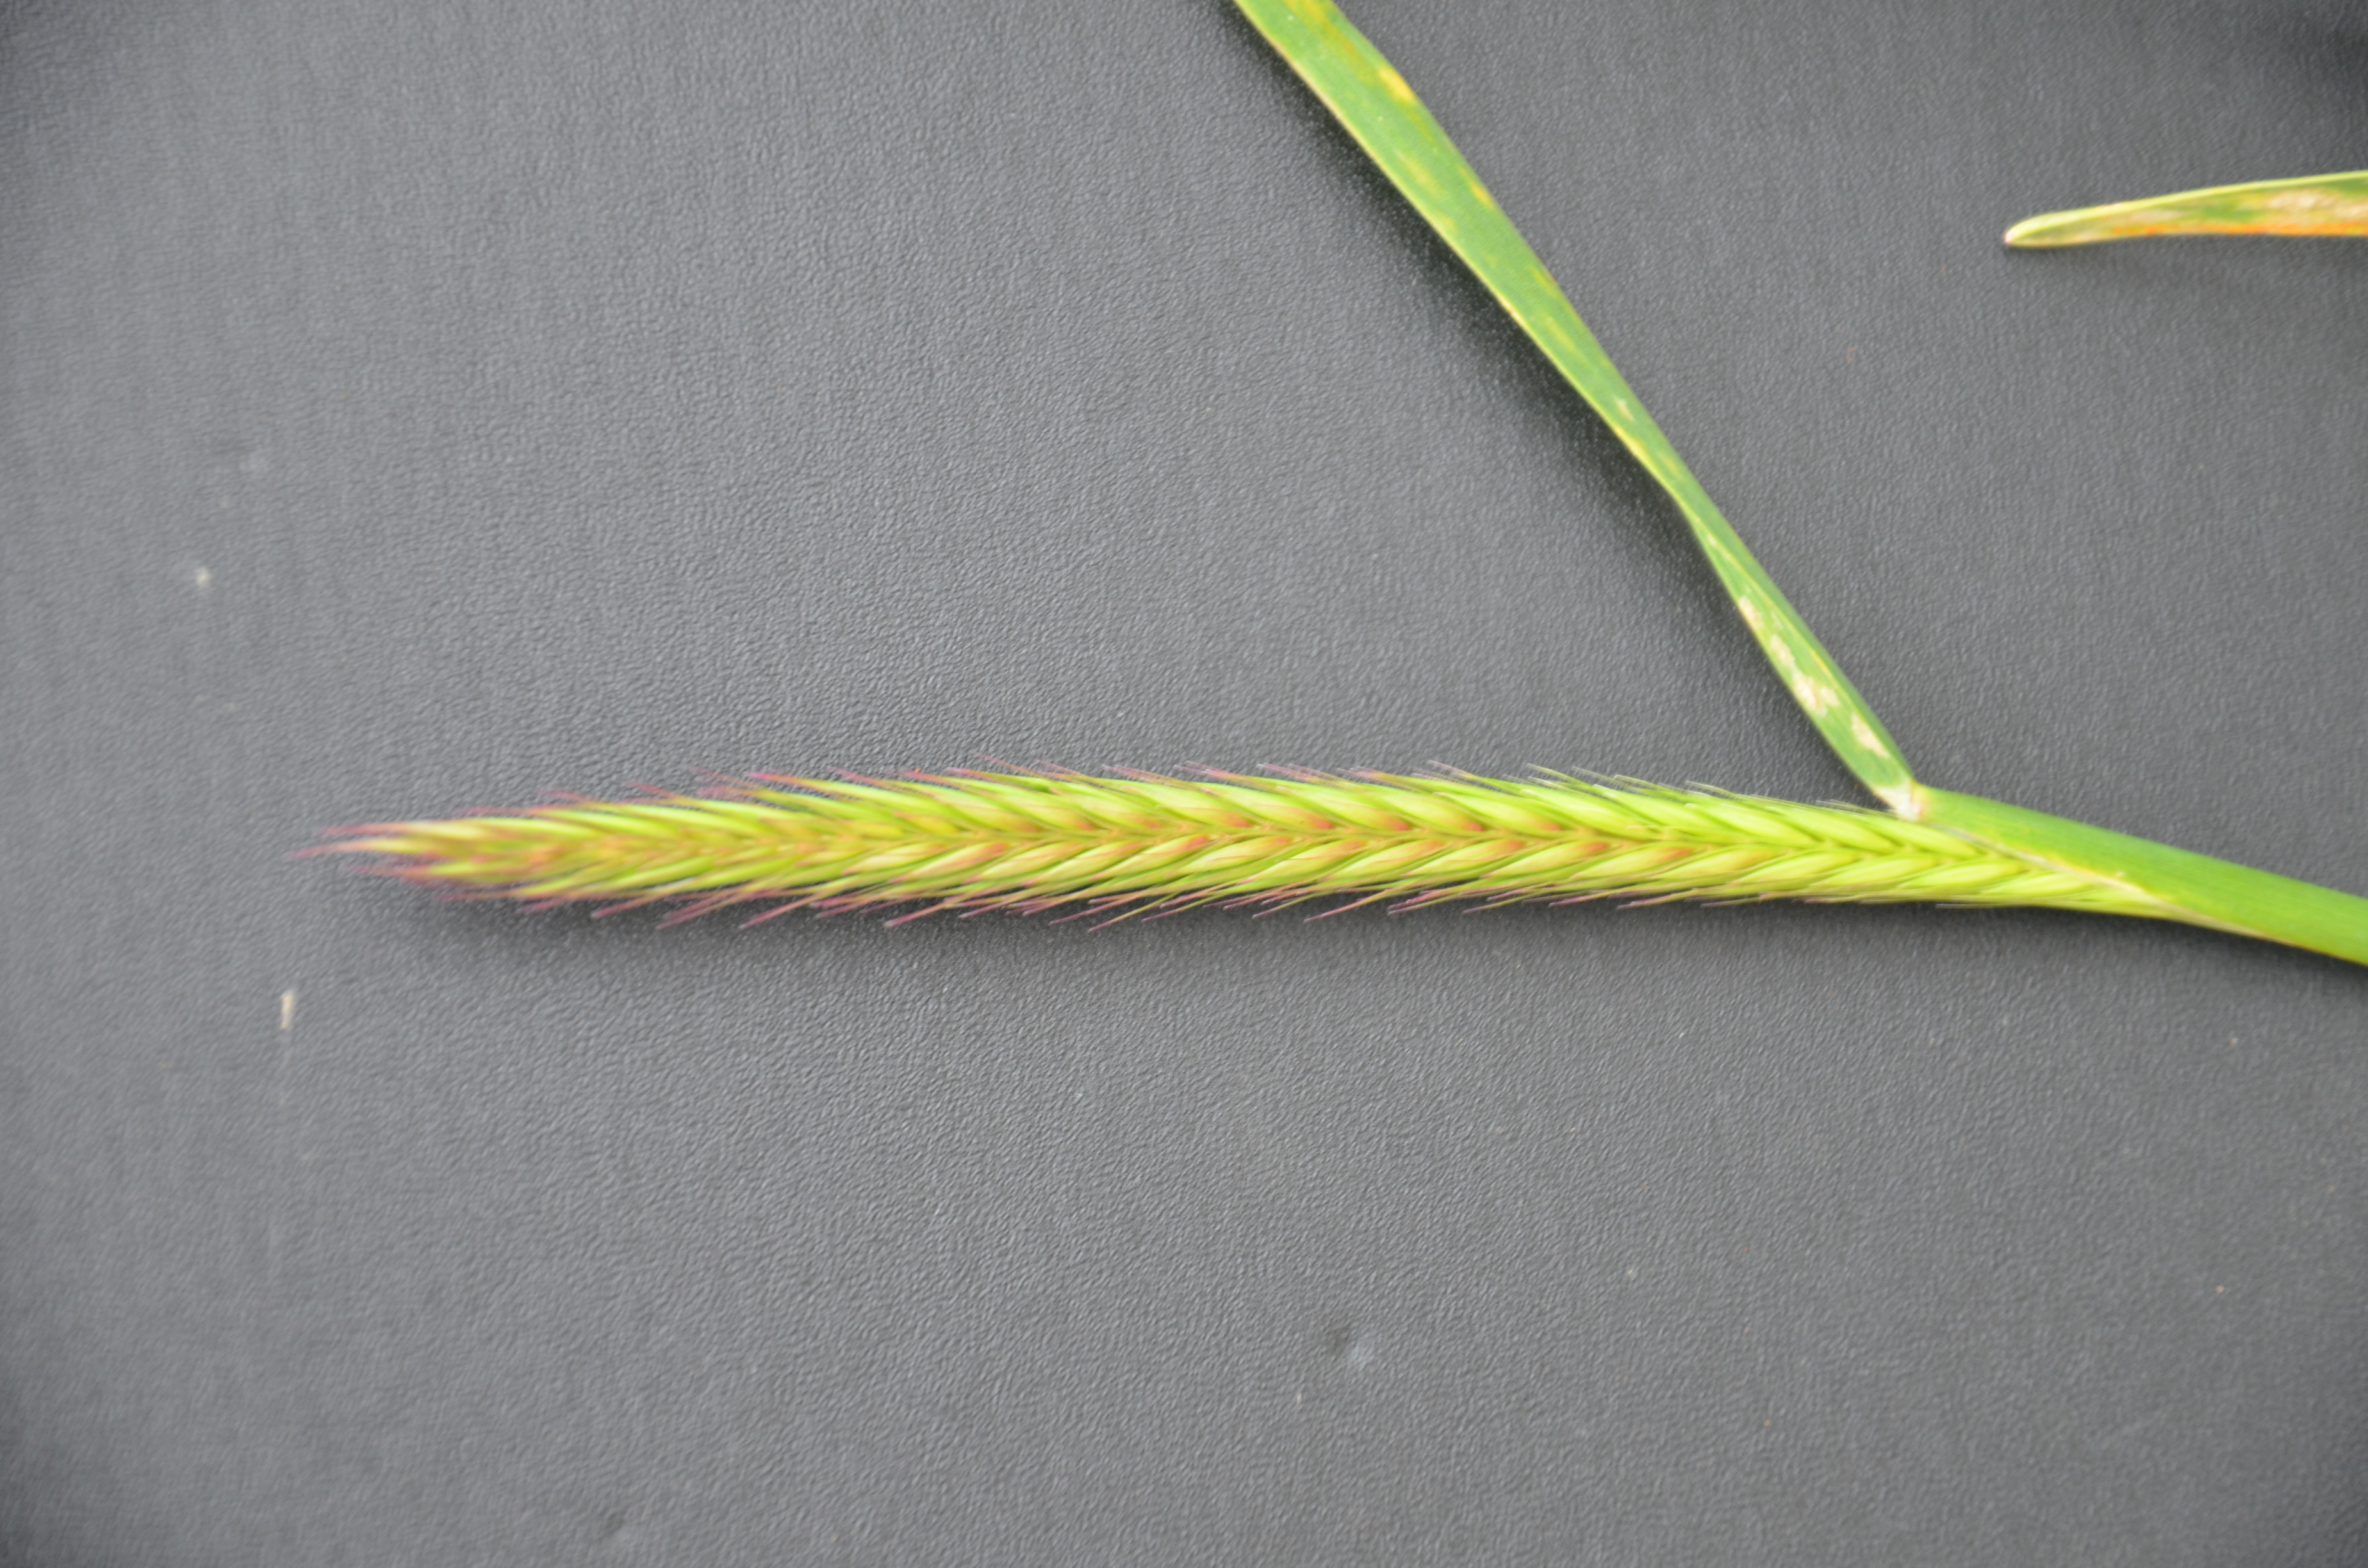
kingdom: Plantae
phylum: Tracheophyta
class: Liliopsida
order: Poales
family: Poaceae
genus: Hordeum
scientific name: Hordeum parodii
